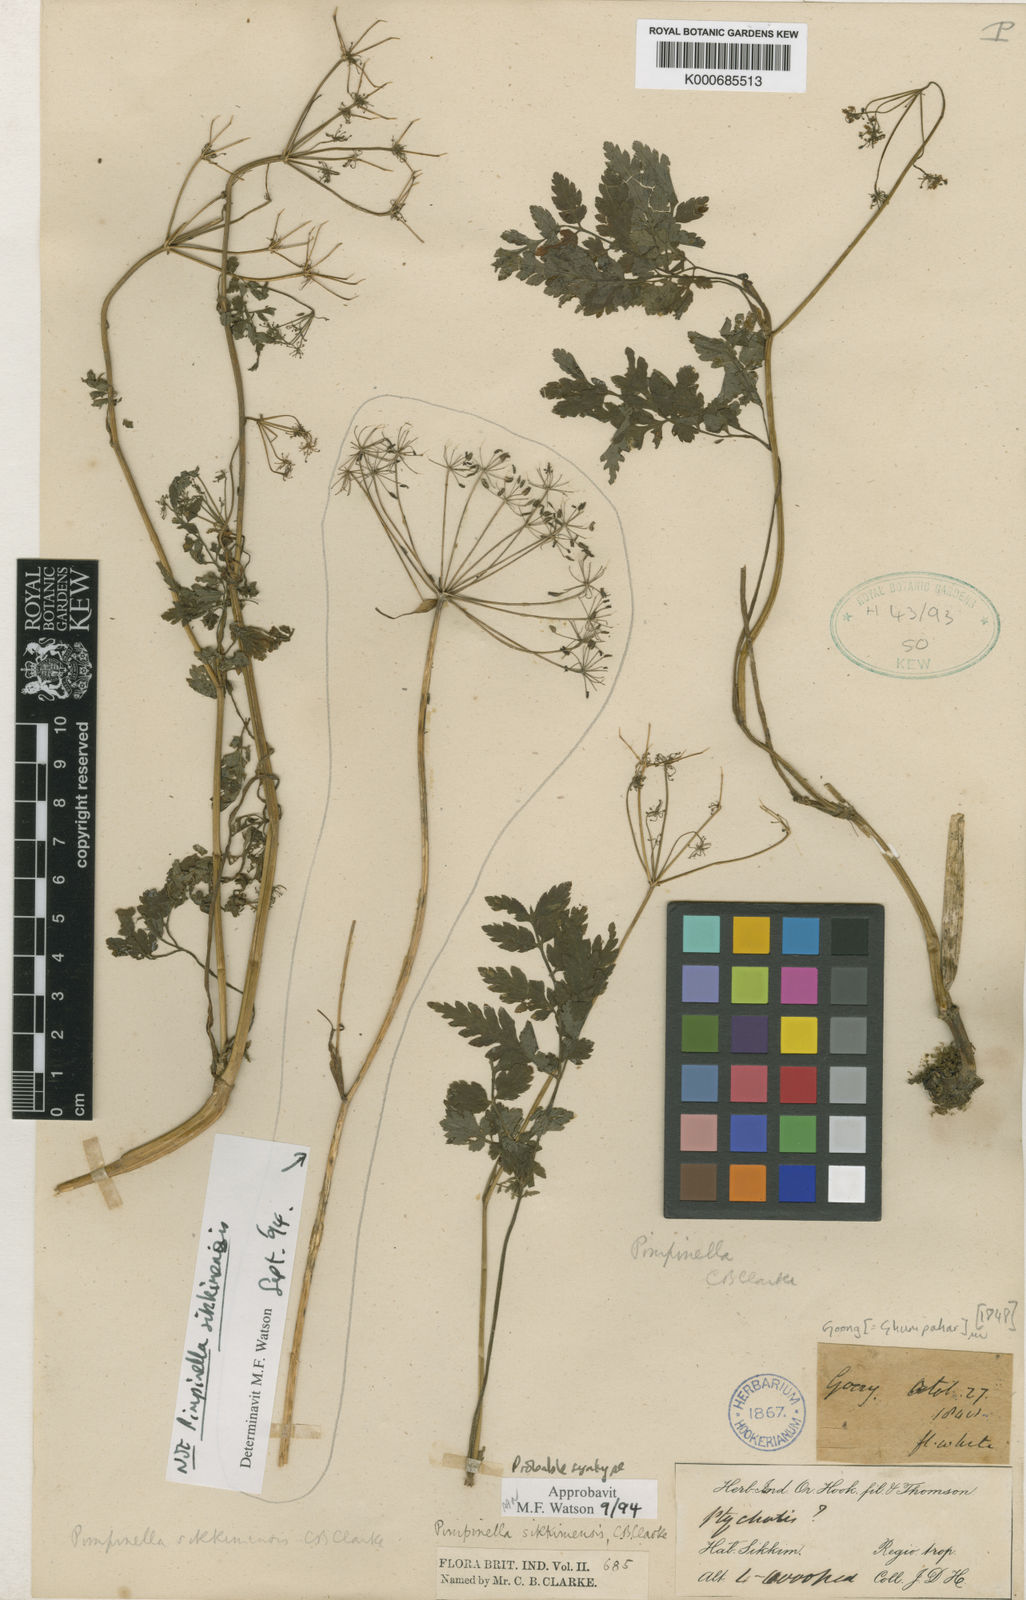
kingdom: Plantae
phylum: Tracheophyta
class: Magnoliopsida
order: Apiales
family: Apiaceae
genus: Pimpinella
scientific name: Pimpinella sikkimensis
